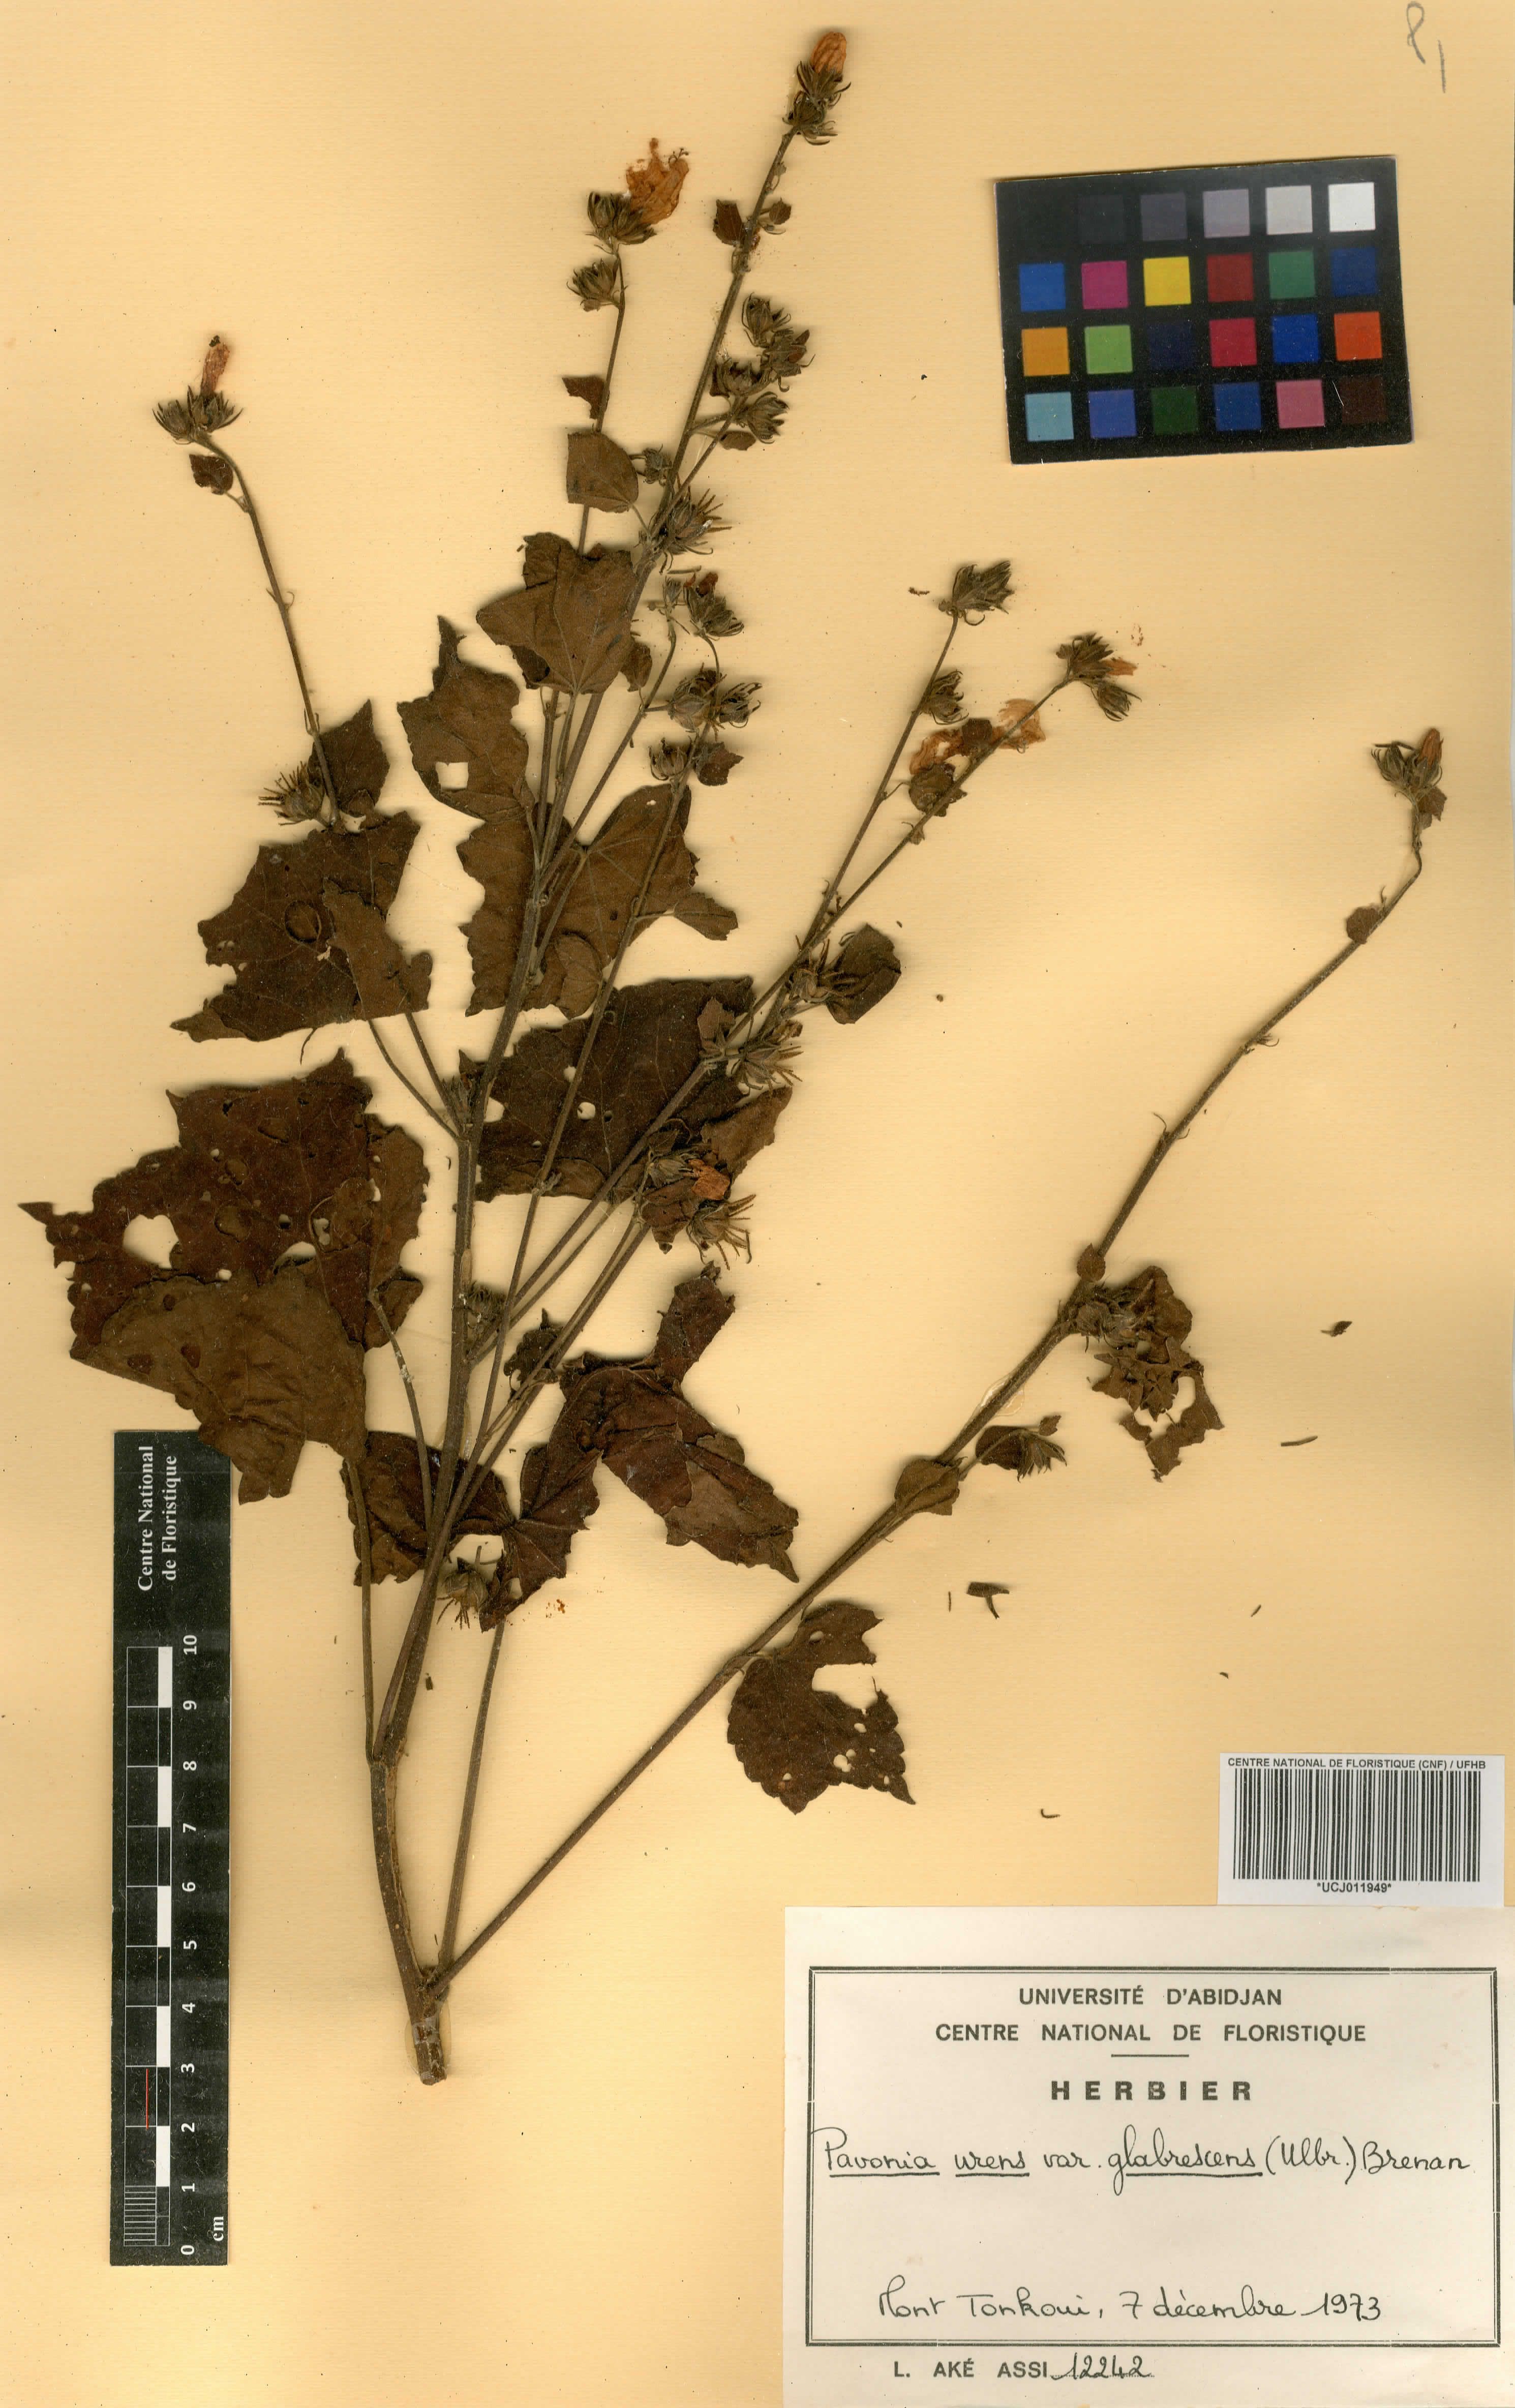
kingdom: Plantae
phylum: Tracheophyta
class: Magnoliopsida
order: Malvales
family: Malvaceae
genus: Pavonia
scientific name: Pavonia schimperiana
